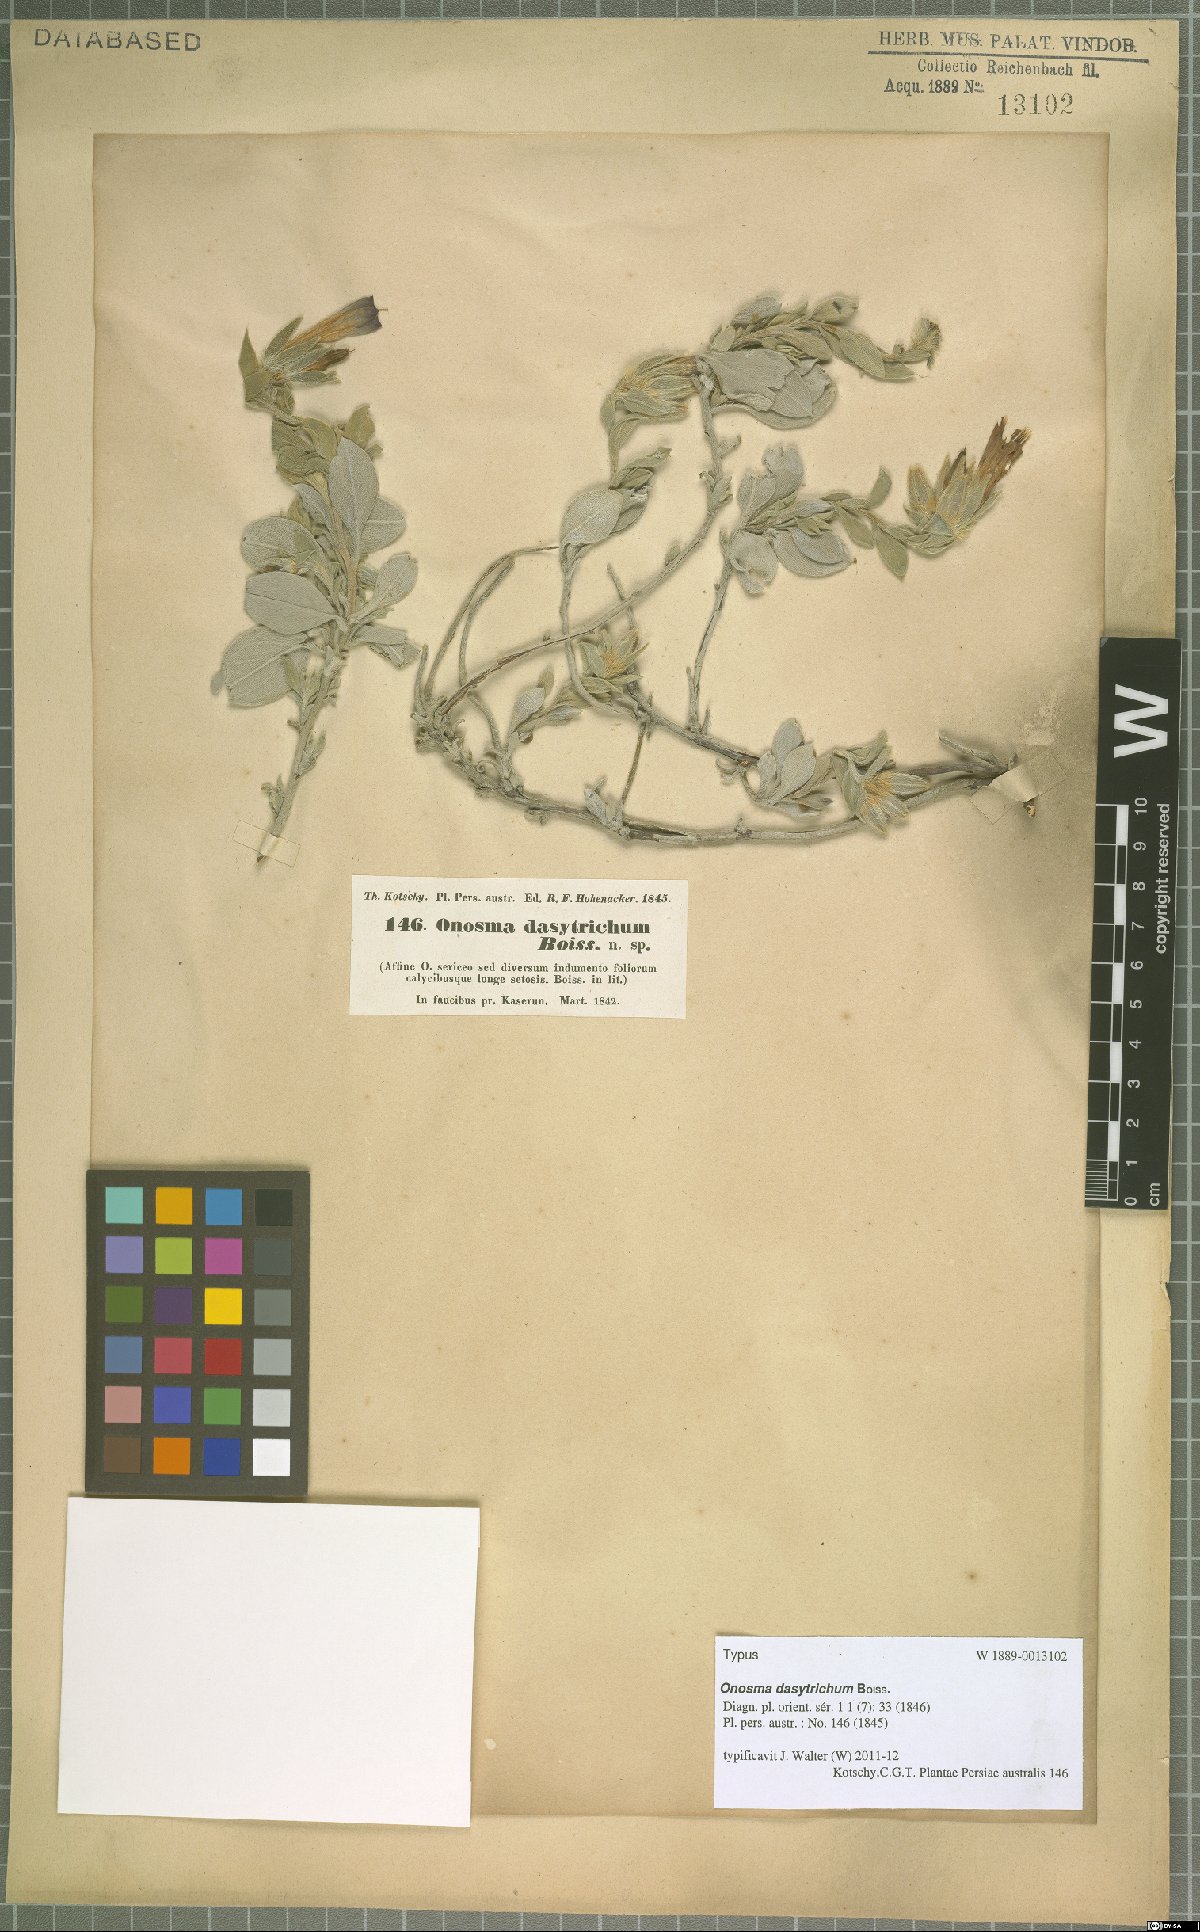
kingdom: Plantae
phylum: Tracheophyta
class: Magnoliopsida
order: Boraginales
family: Boraginaceae
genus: Onosma
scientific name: Onosma dasytricha
